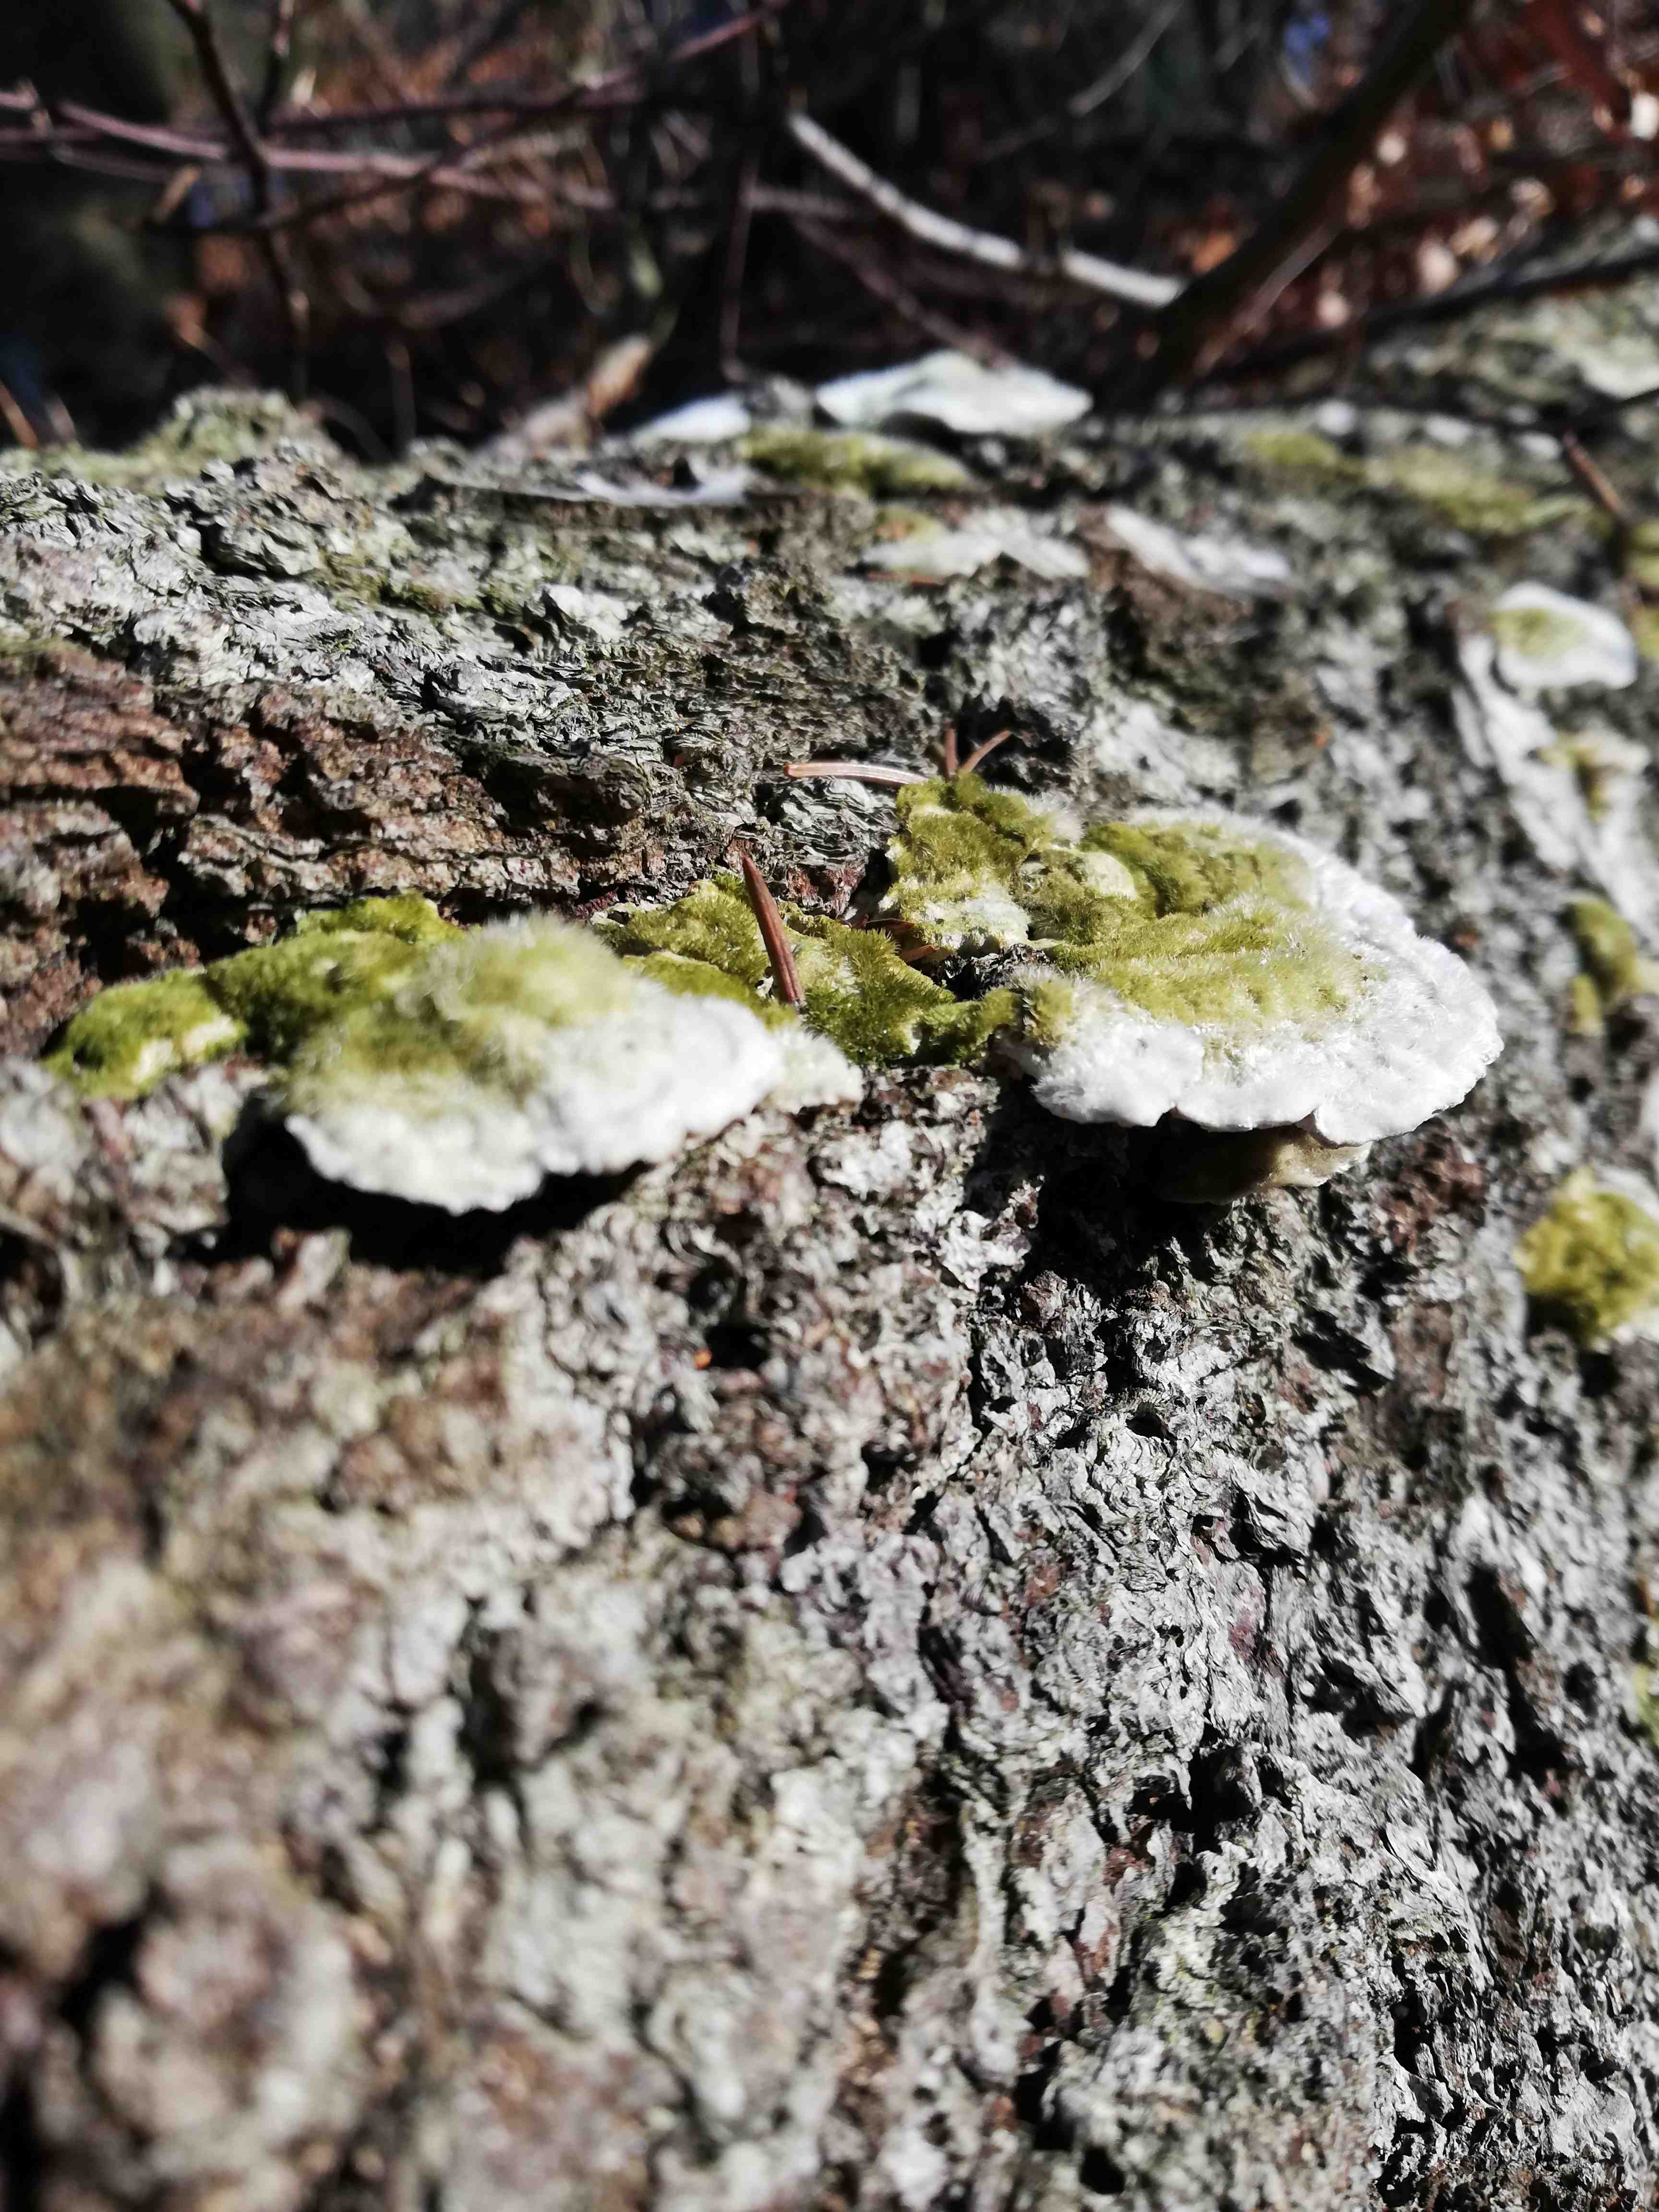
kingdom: Fungi
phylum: Basidiomycota
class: Agaricomycetes
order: Polyporales
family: Polyporaceae
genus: Trametes
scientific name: Trametes hirsuta
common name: håret læderporesvamp
